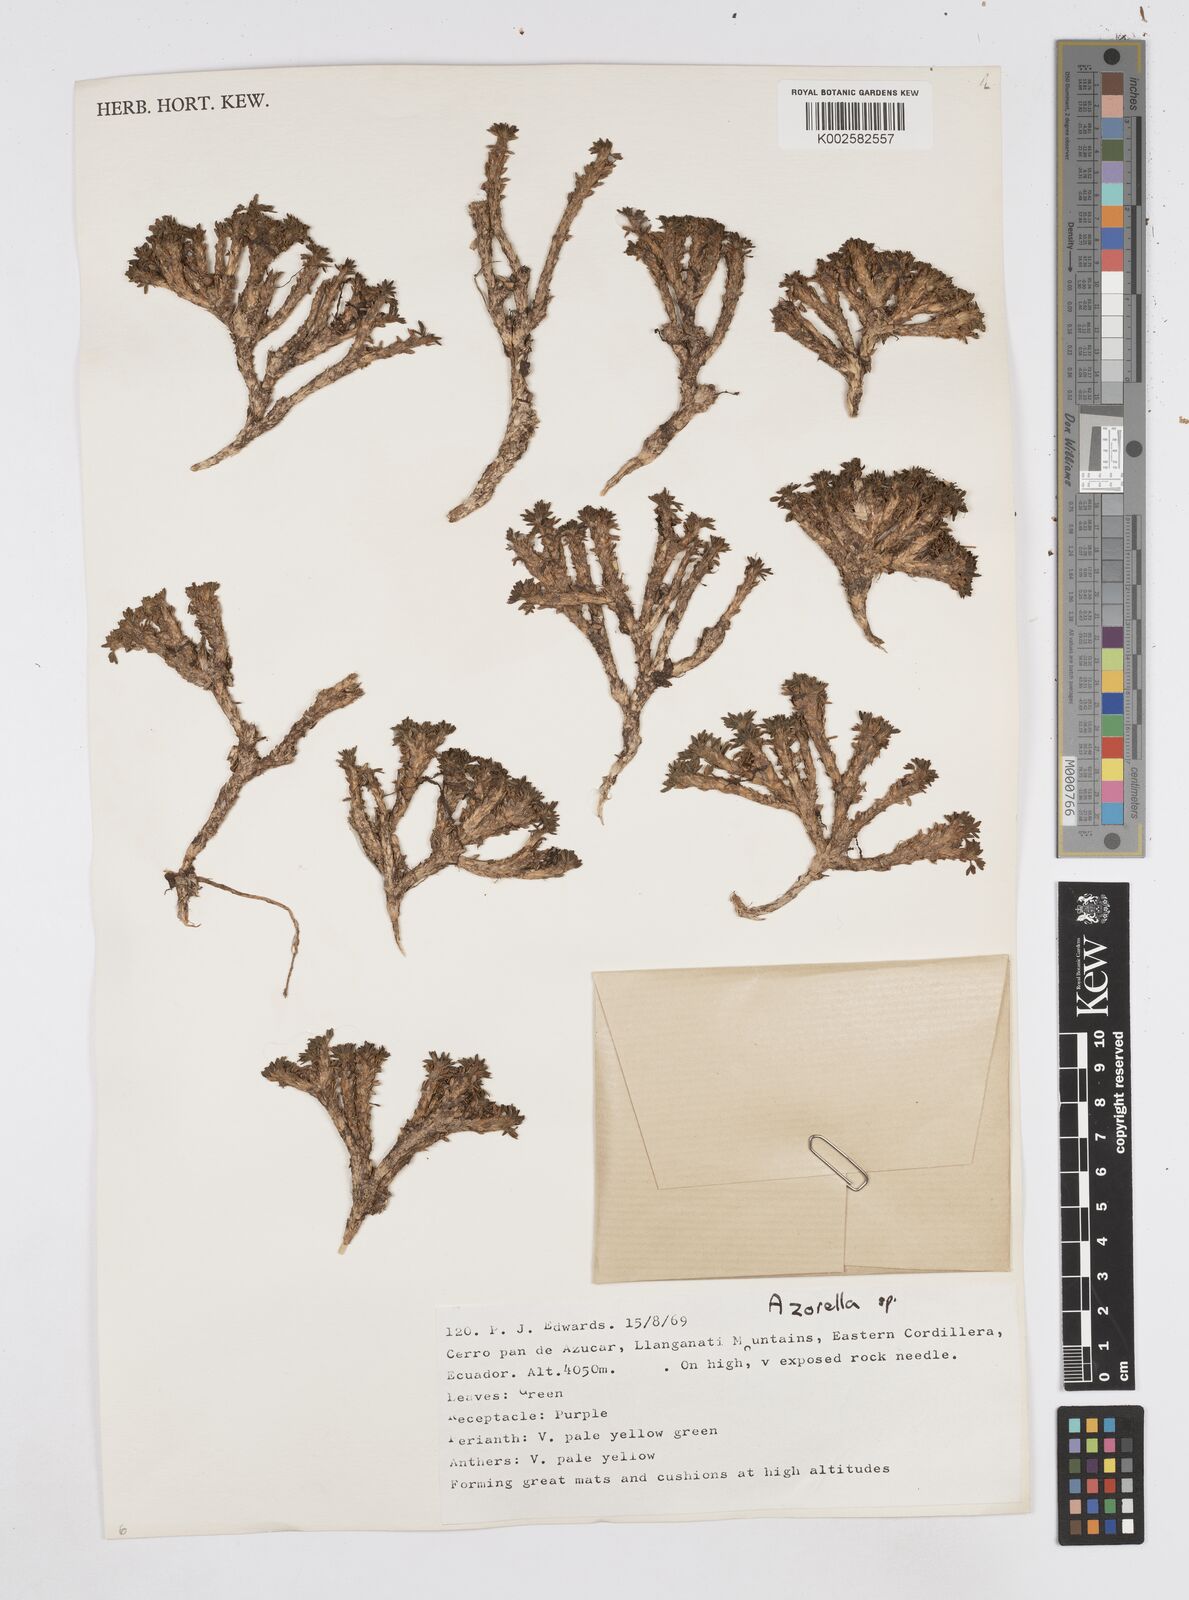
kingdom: Plantae
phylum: Tracheophyta
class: Magnoliopsida
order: Apiales
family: Apiaceae
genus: Azorella
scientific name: Azorella
